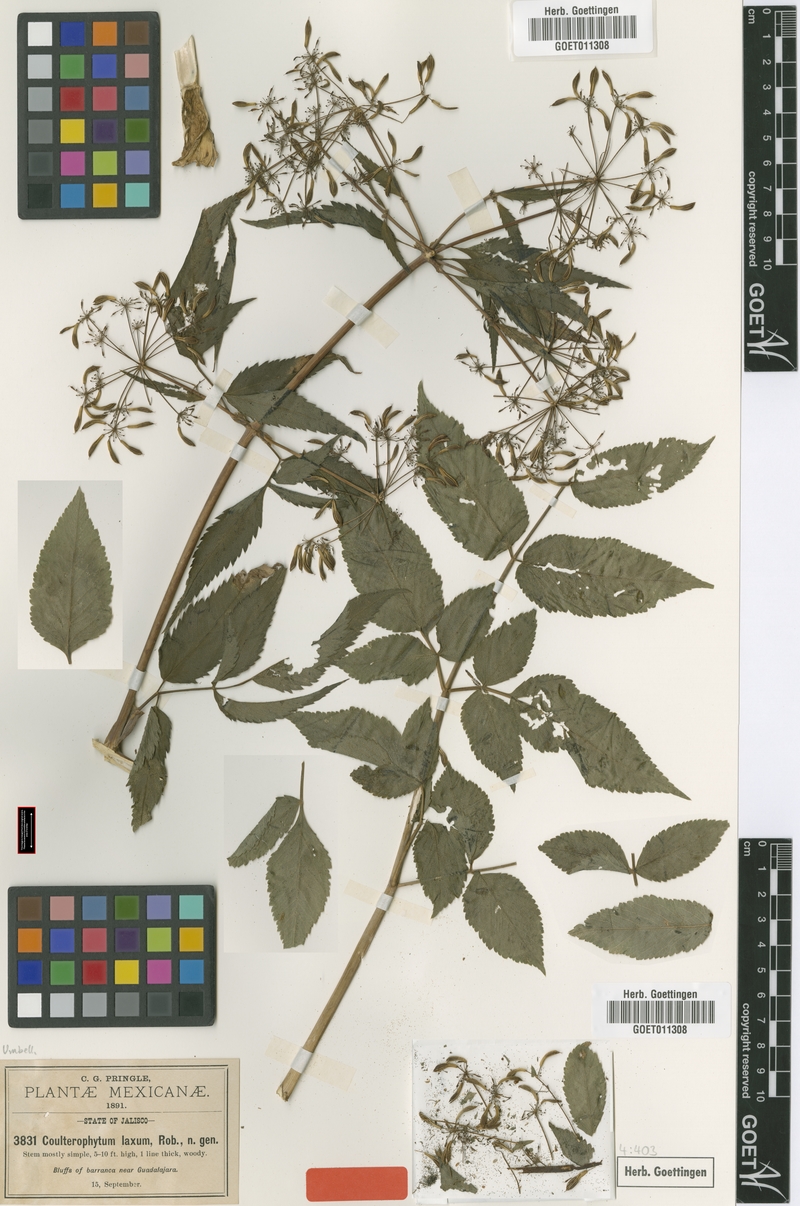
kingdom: Plantae
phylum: Tracheophyta
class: Magnoliopsida
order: Apiales
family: Apiaceae
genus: Coulterophytum
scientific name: Coulterophytum laxum
